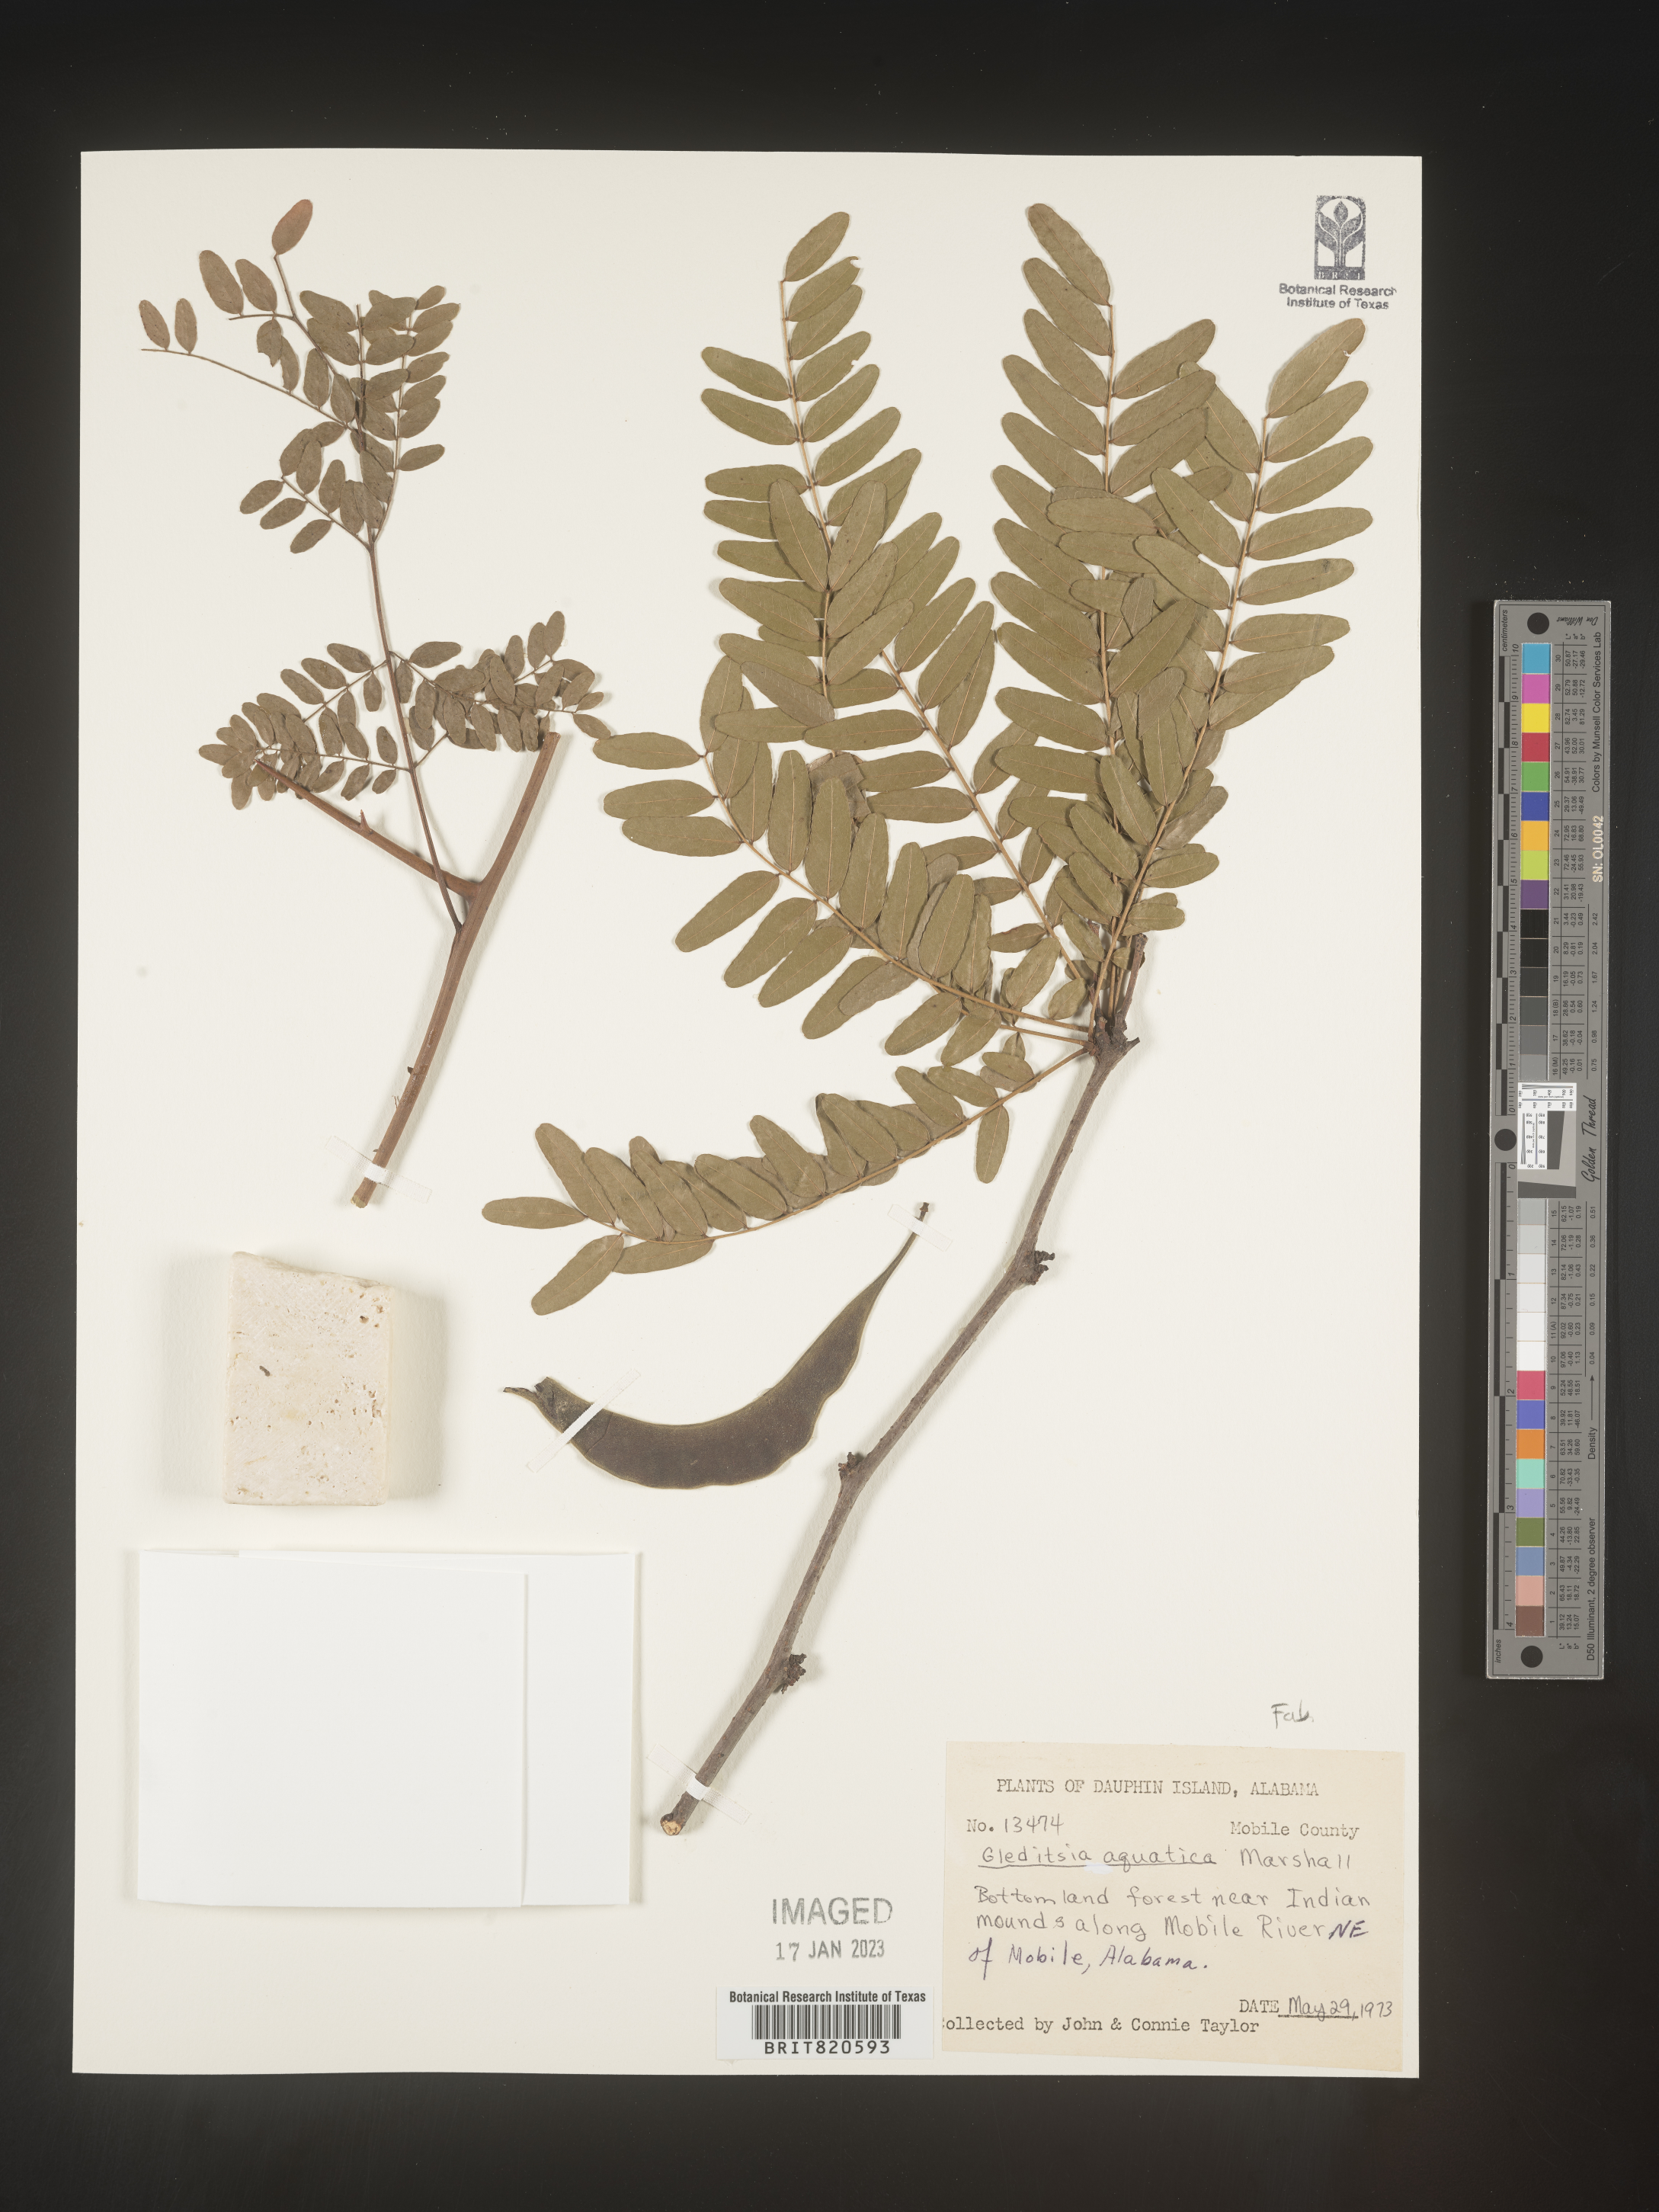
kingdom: Plantae
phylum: Tracheophyta
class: Magnoliopsida
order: Fabales
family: Fabaceae
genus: Gleditsia
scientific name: Gleditsia aquatica
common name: Swamp-locust
